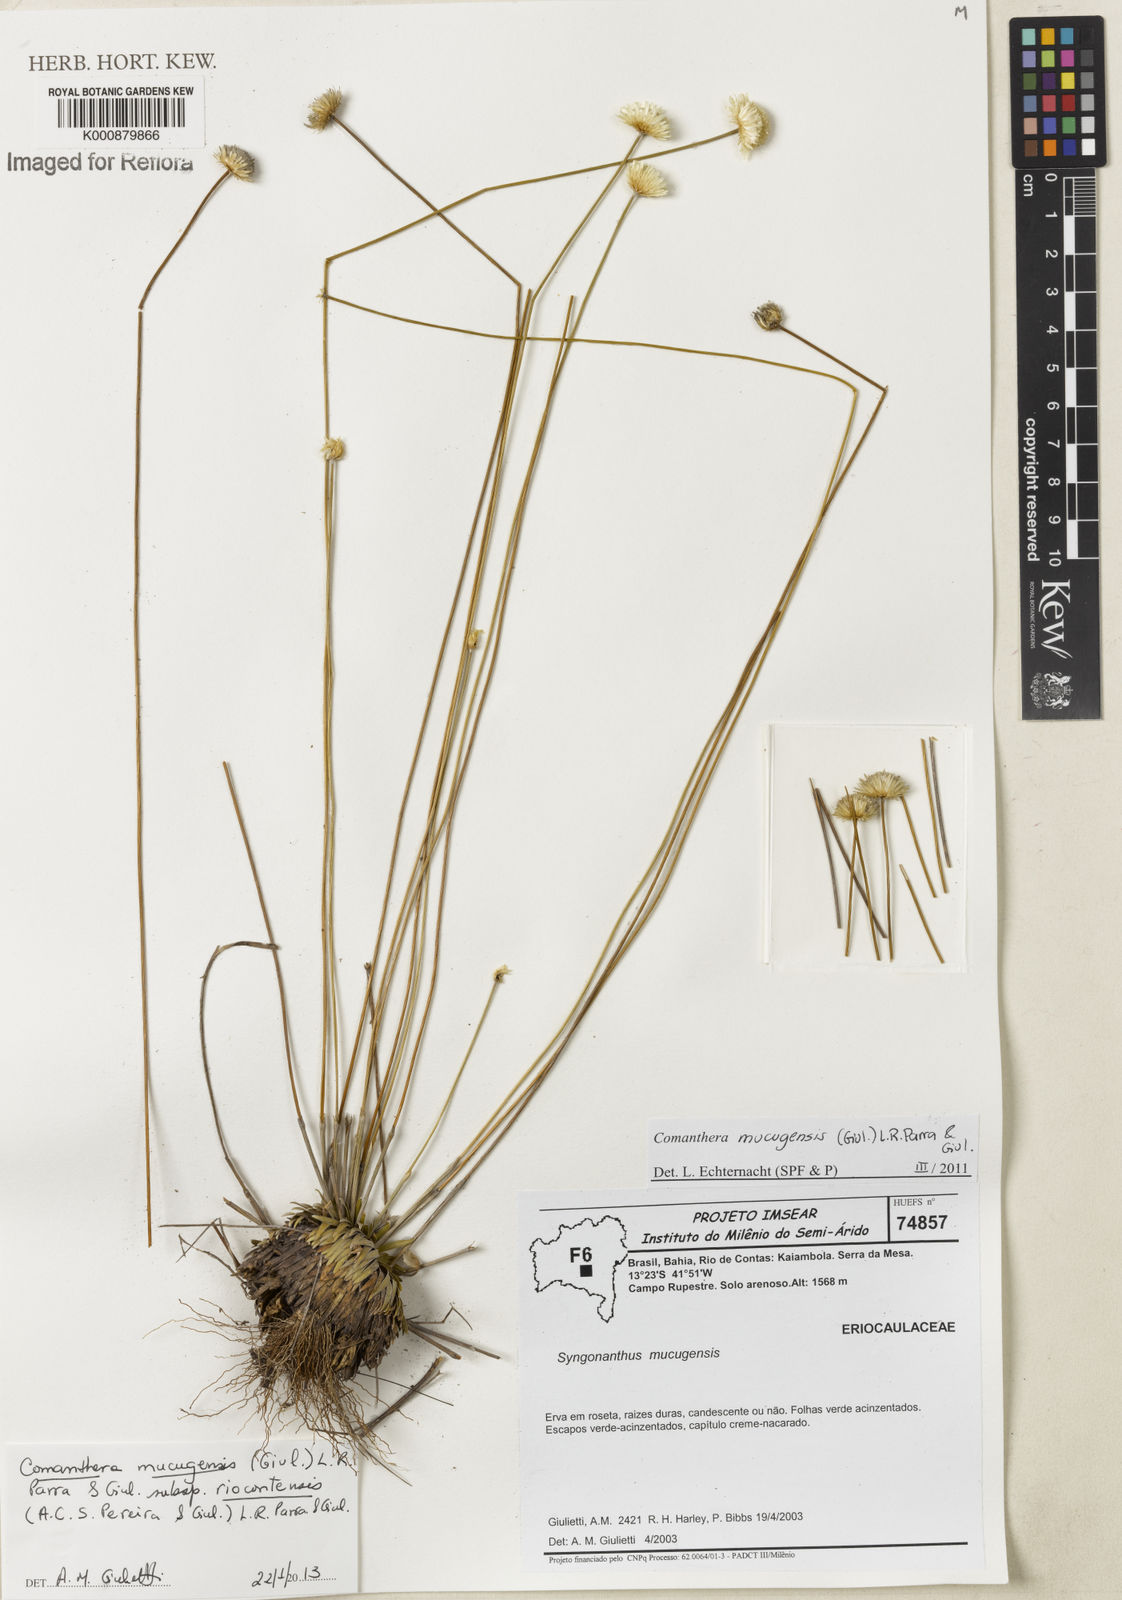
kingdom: Plantae
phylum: Tracheophyta
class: Liliopsida
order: Poales
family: Eriocaulaceae
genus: Comanthera
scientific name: Comanthera mucugensis
